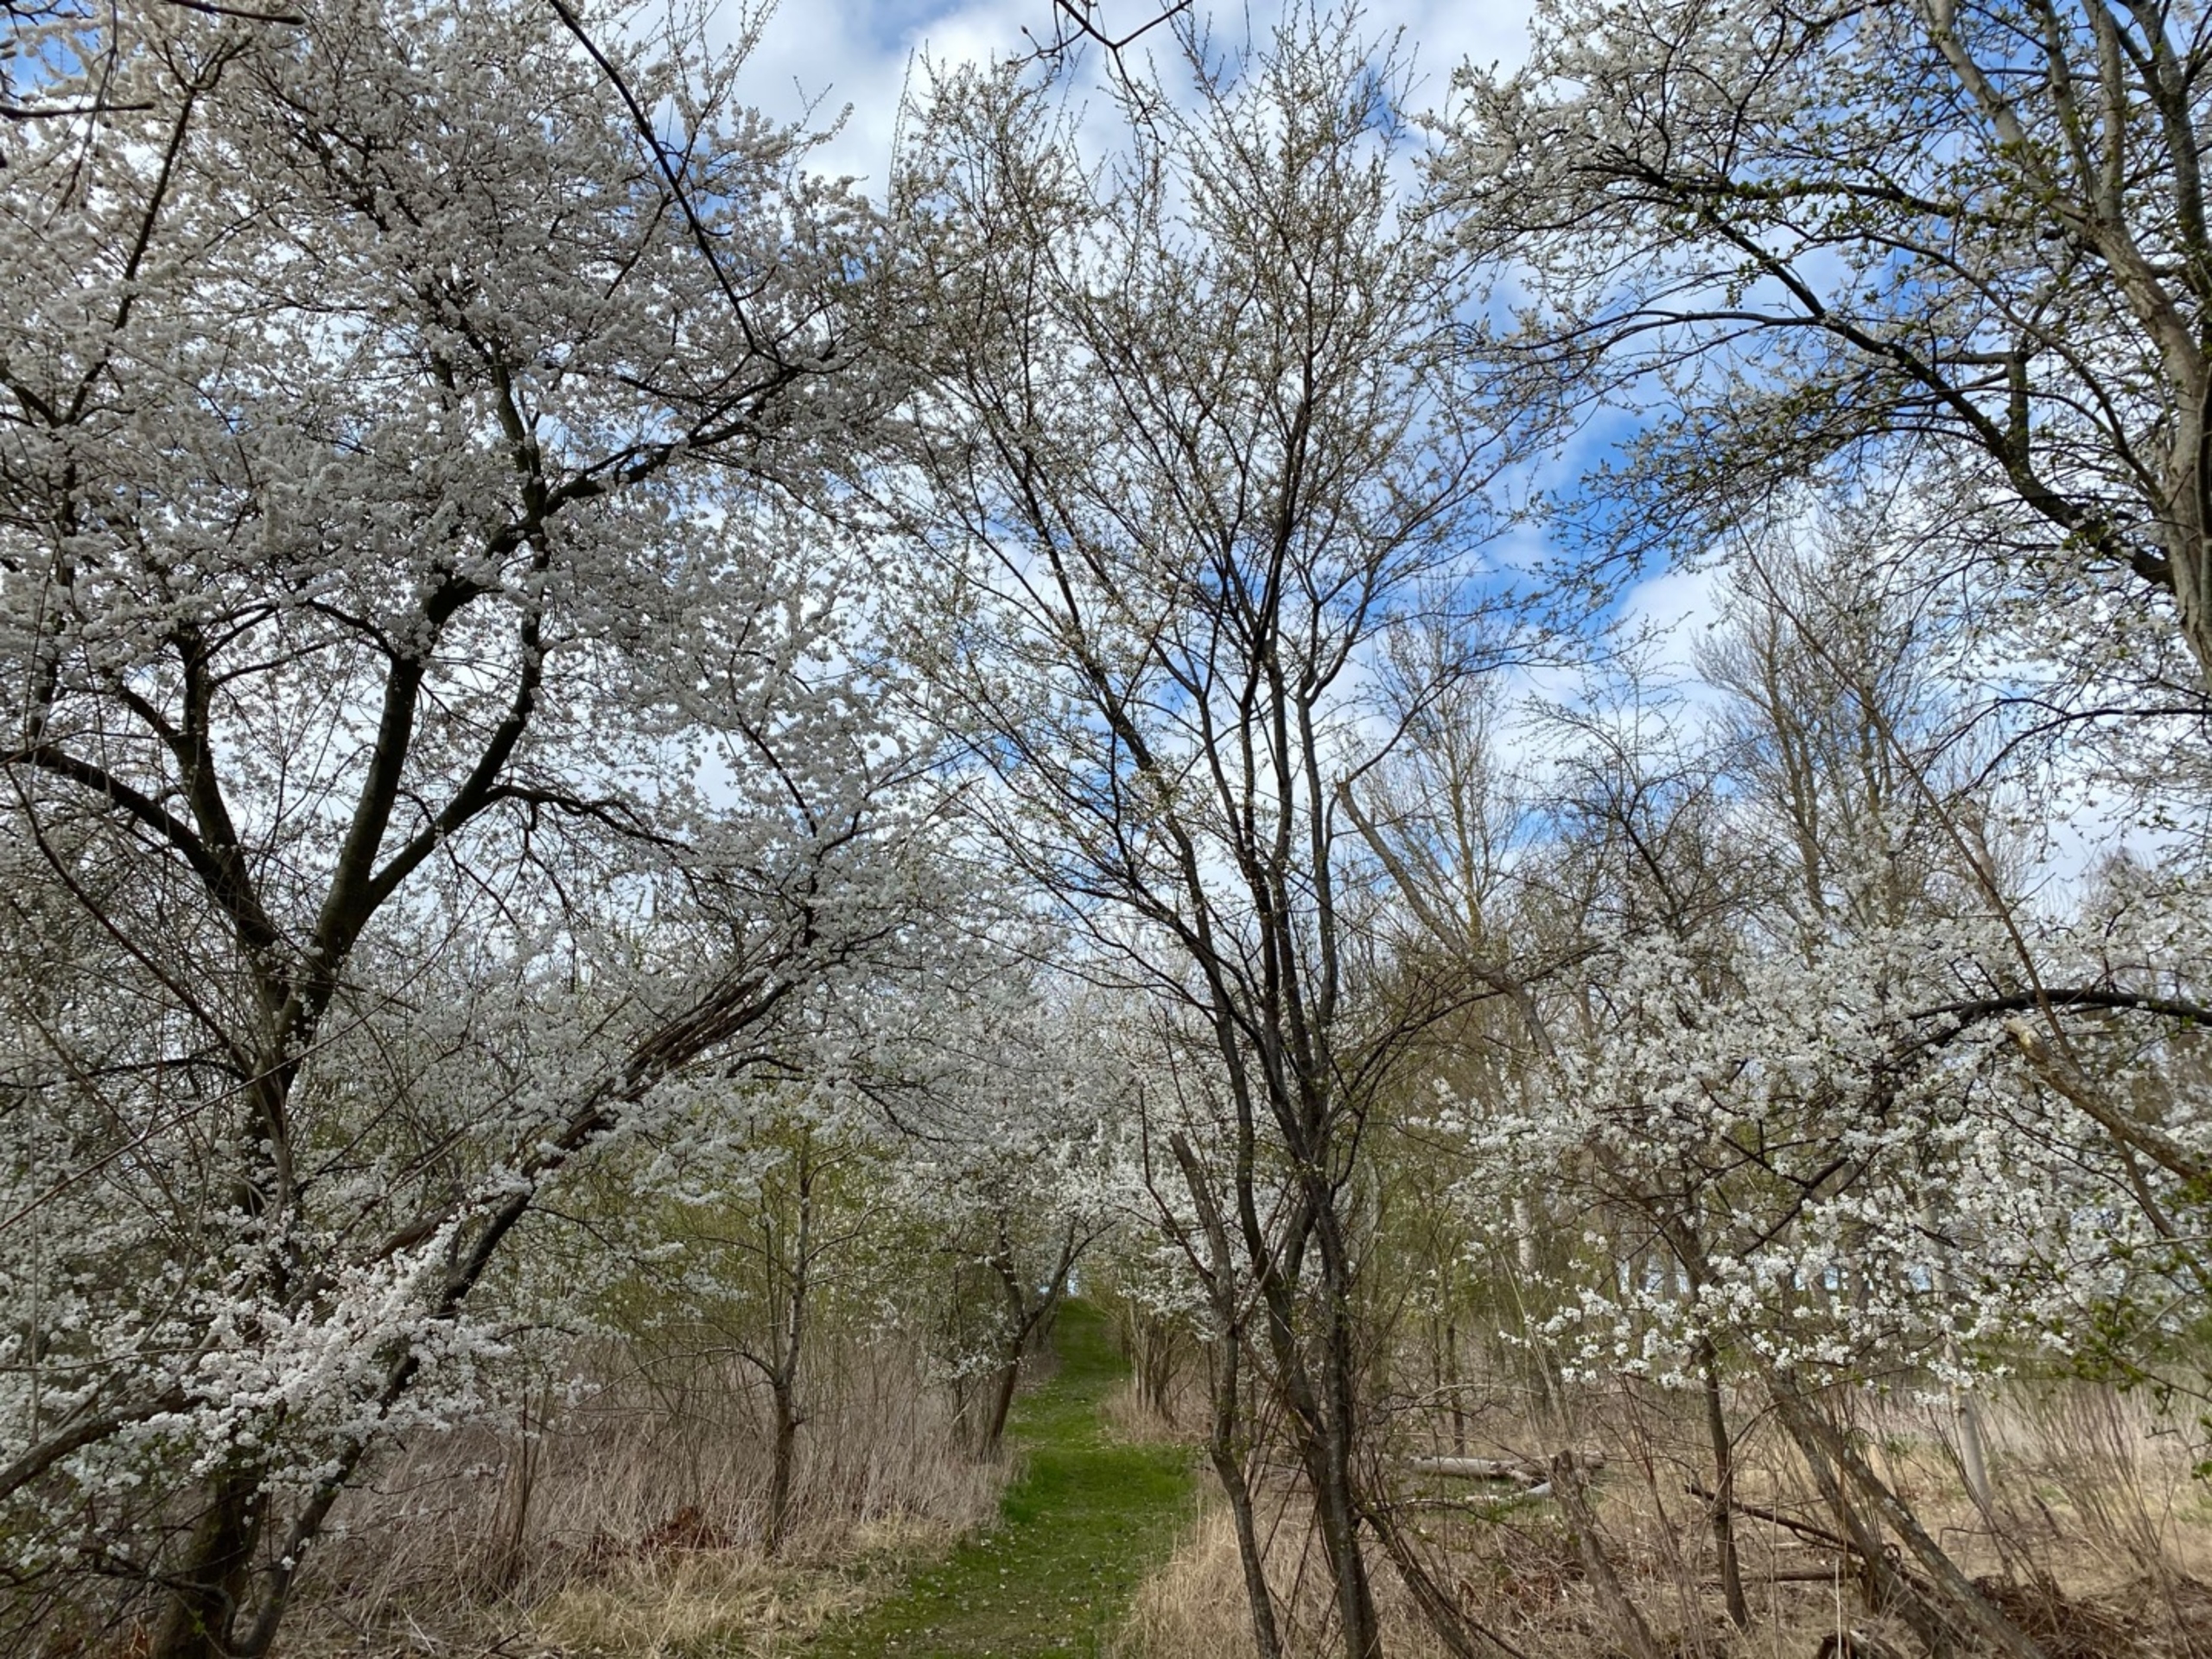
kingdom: Plantae
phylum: Tracheophyta
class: Magnoliopsida
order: Rosales
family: Rosaceae
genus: Prunus
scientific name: Prunus cerasifera
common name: Mirabel
